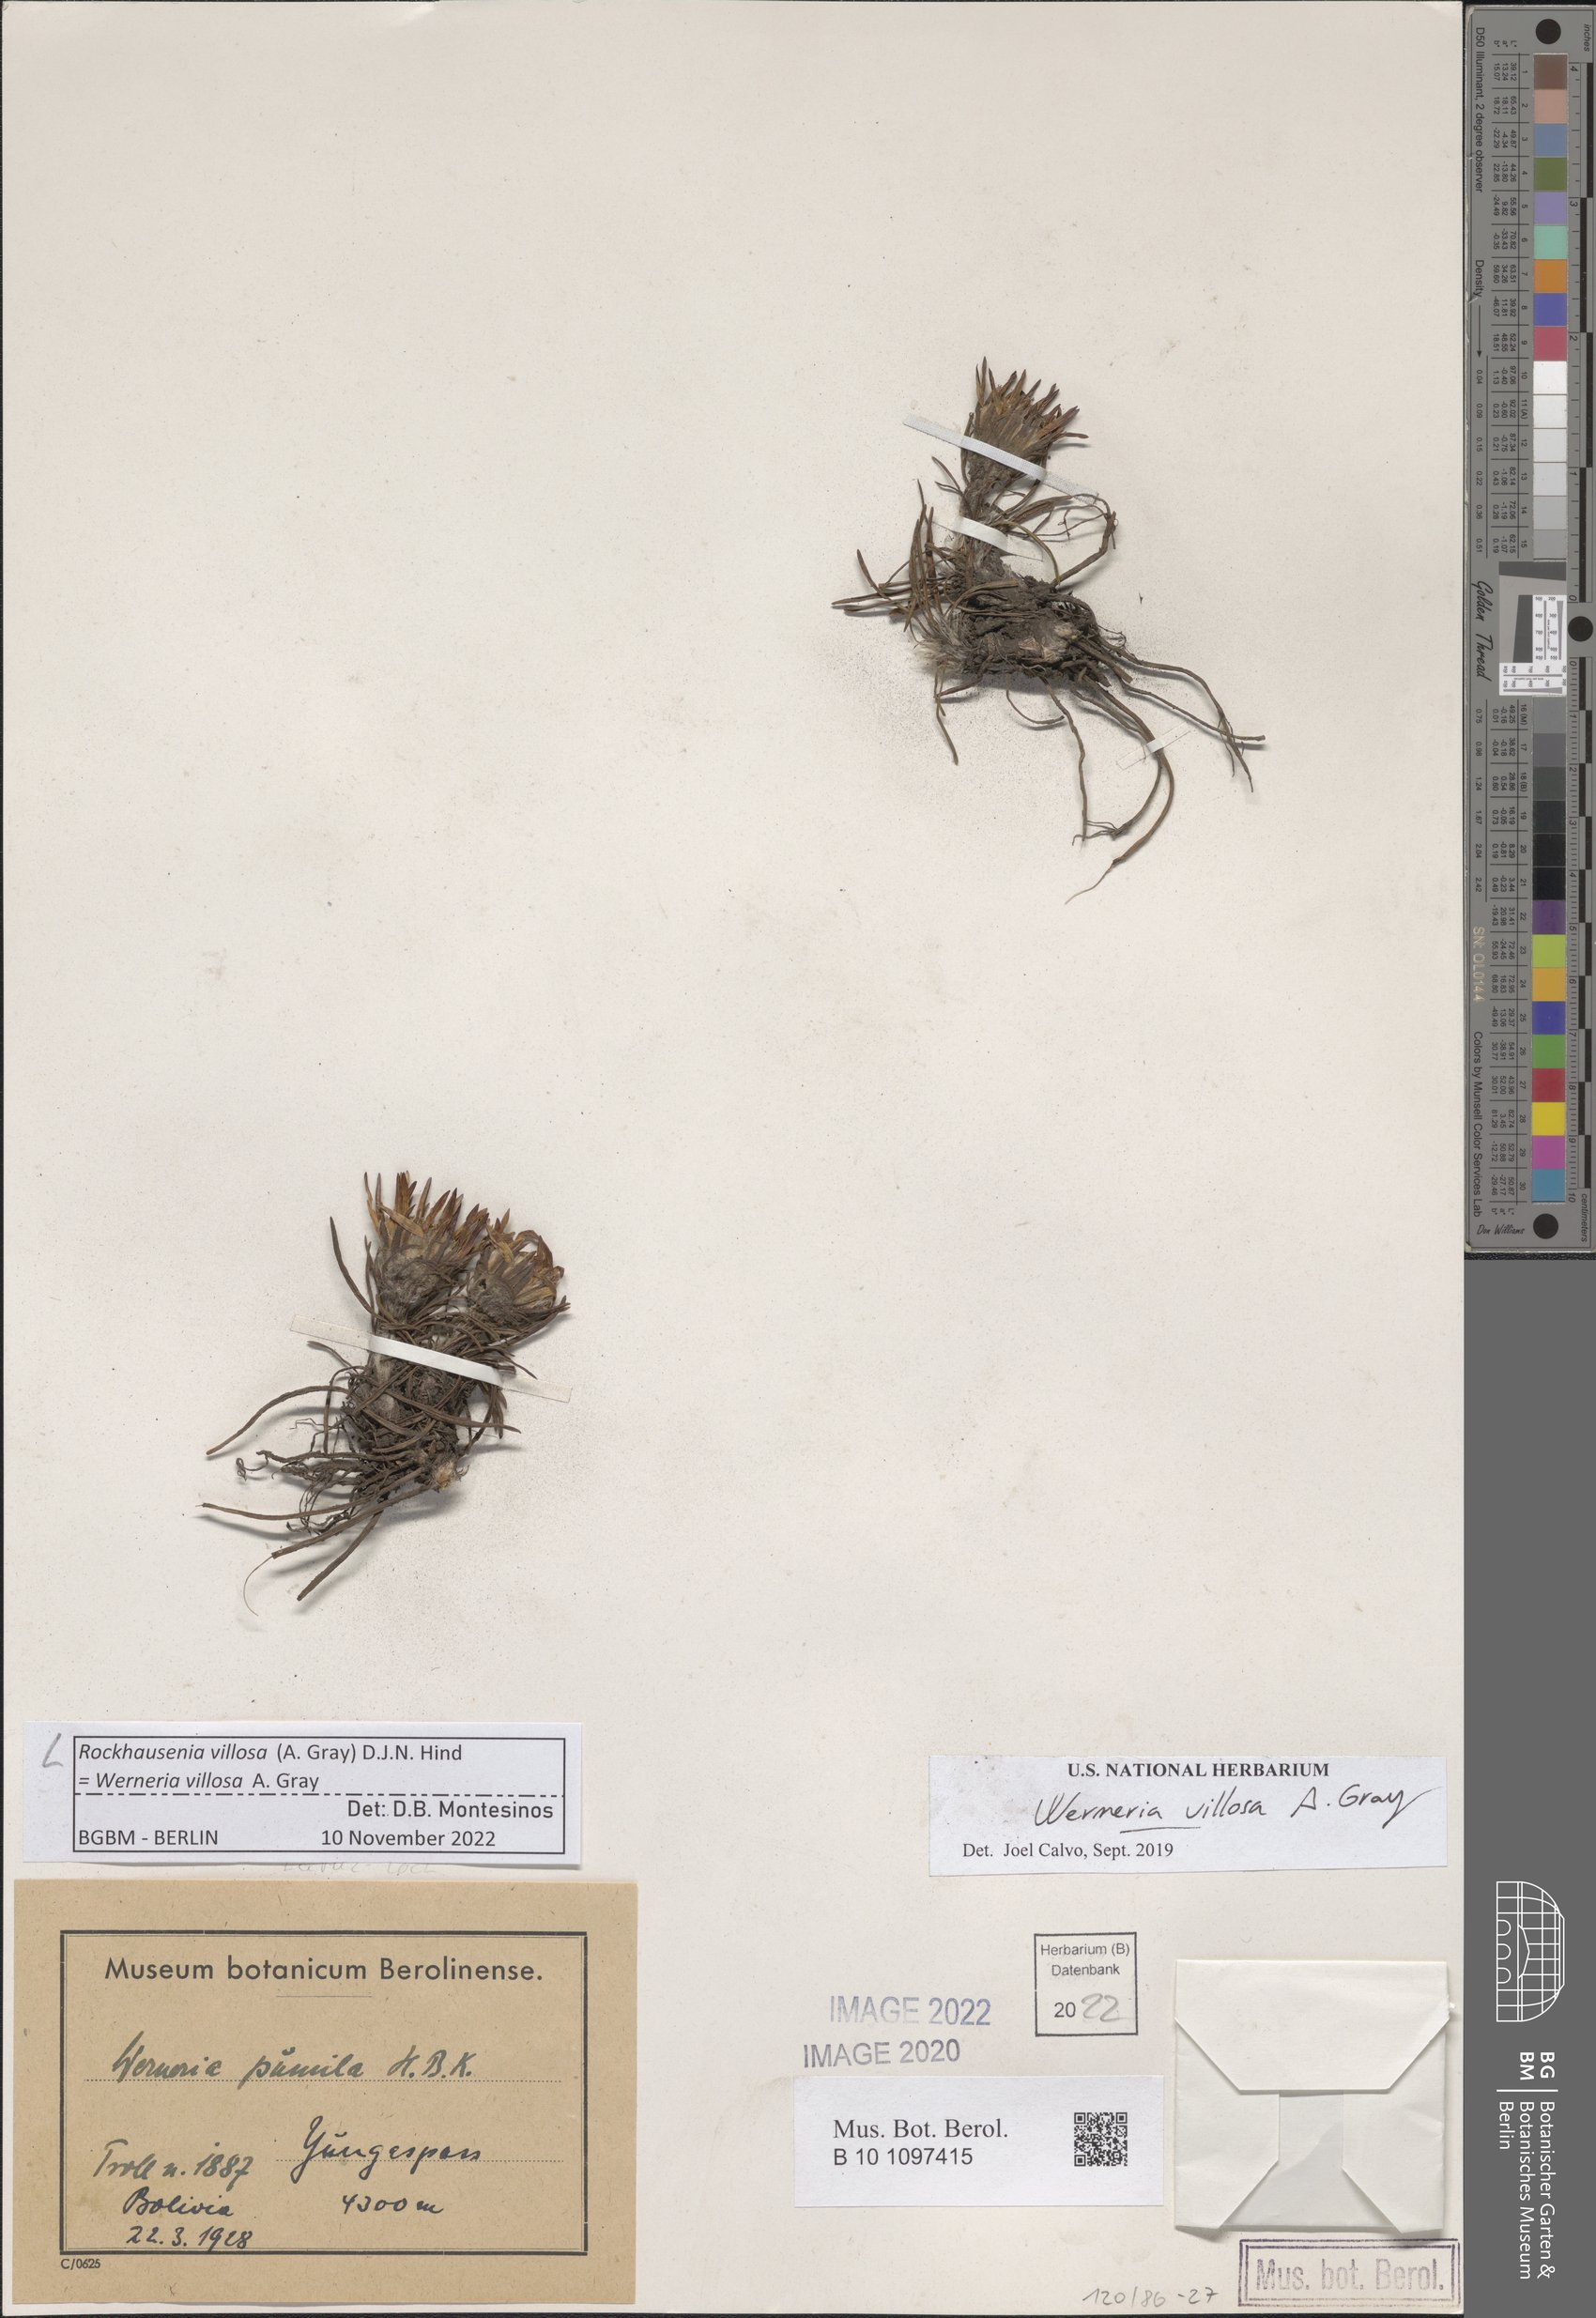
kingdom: Plantae
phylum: Tracheophyta
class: Magnoliopsida
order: Asterales
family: Asteraceae
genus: Rockhausenia
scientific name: Rockhausenia villosa
